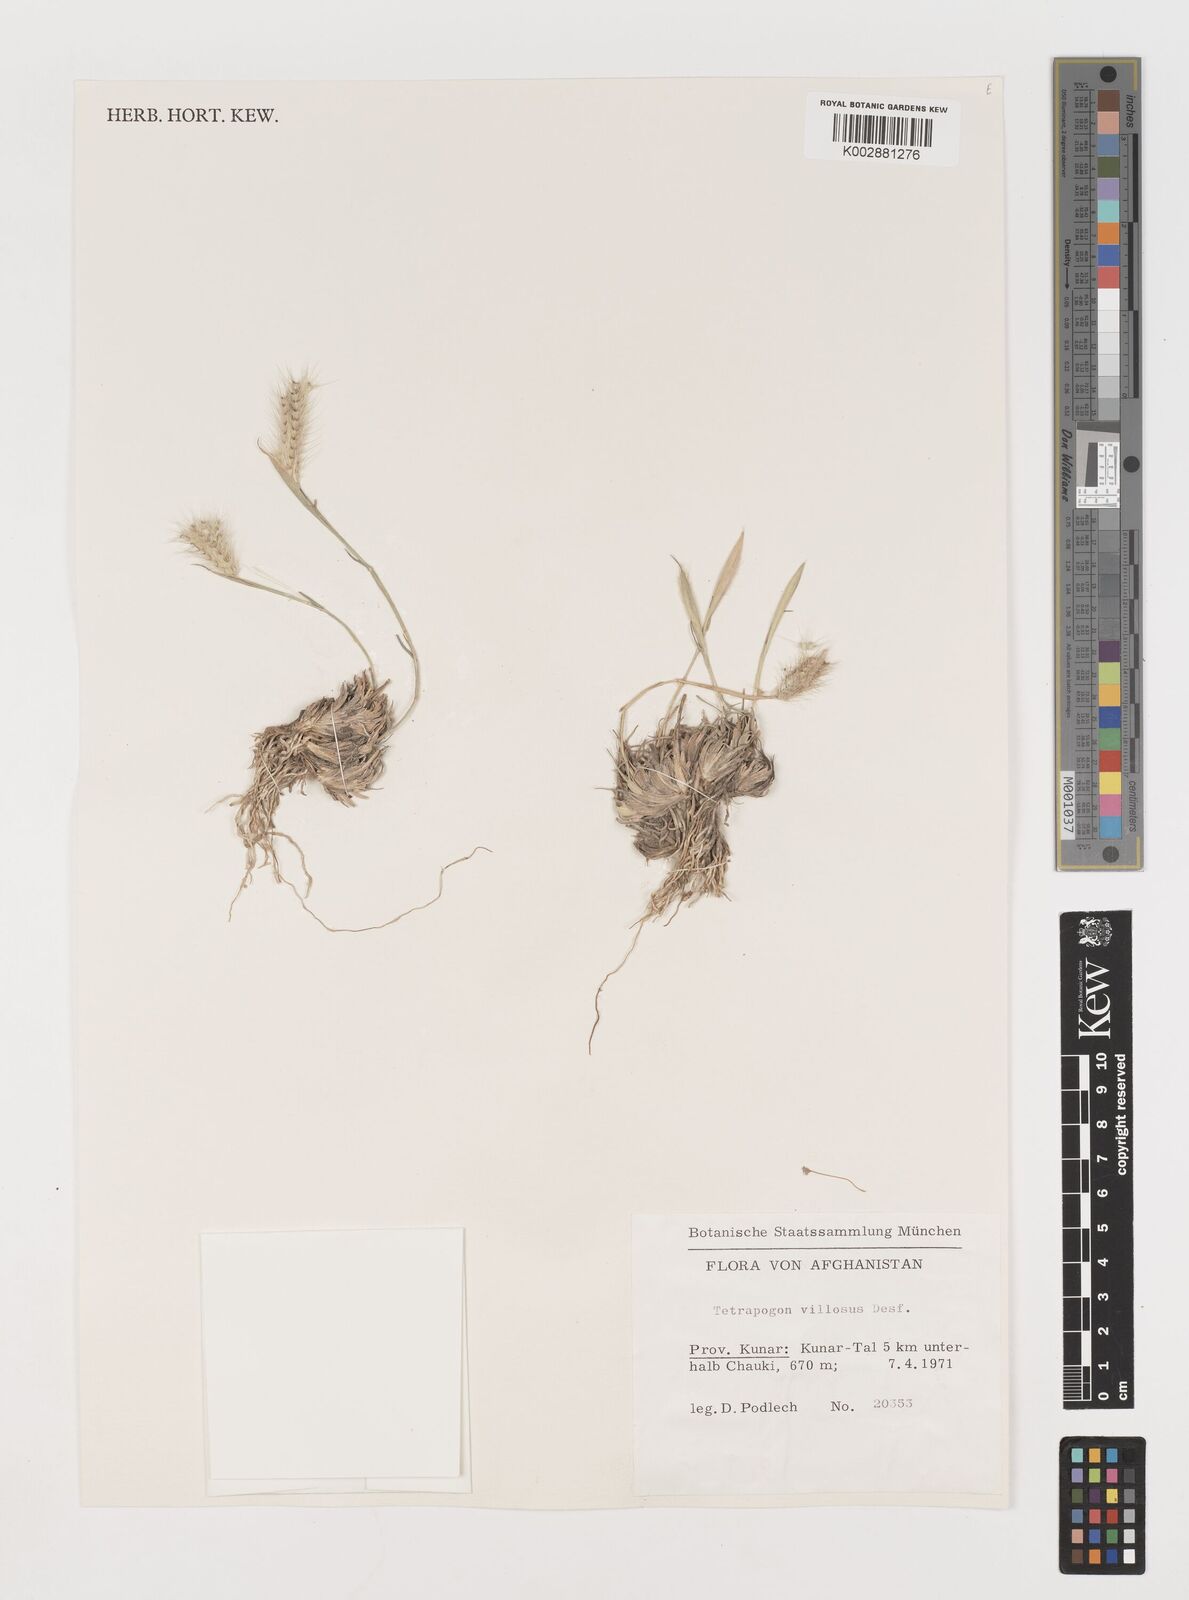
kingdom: Plantae
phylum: Tracheophyta
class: Liliopsida
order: Poales
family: Poaceae
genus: Tetrapogon
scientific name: Tetrapogon villosus
